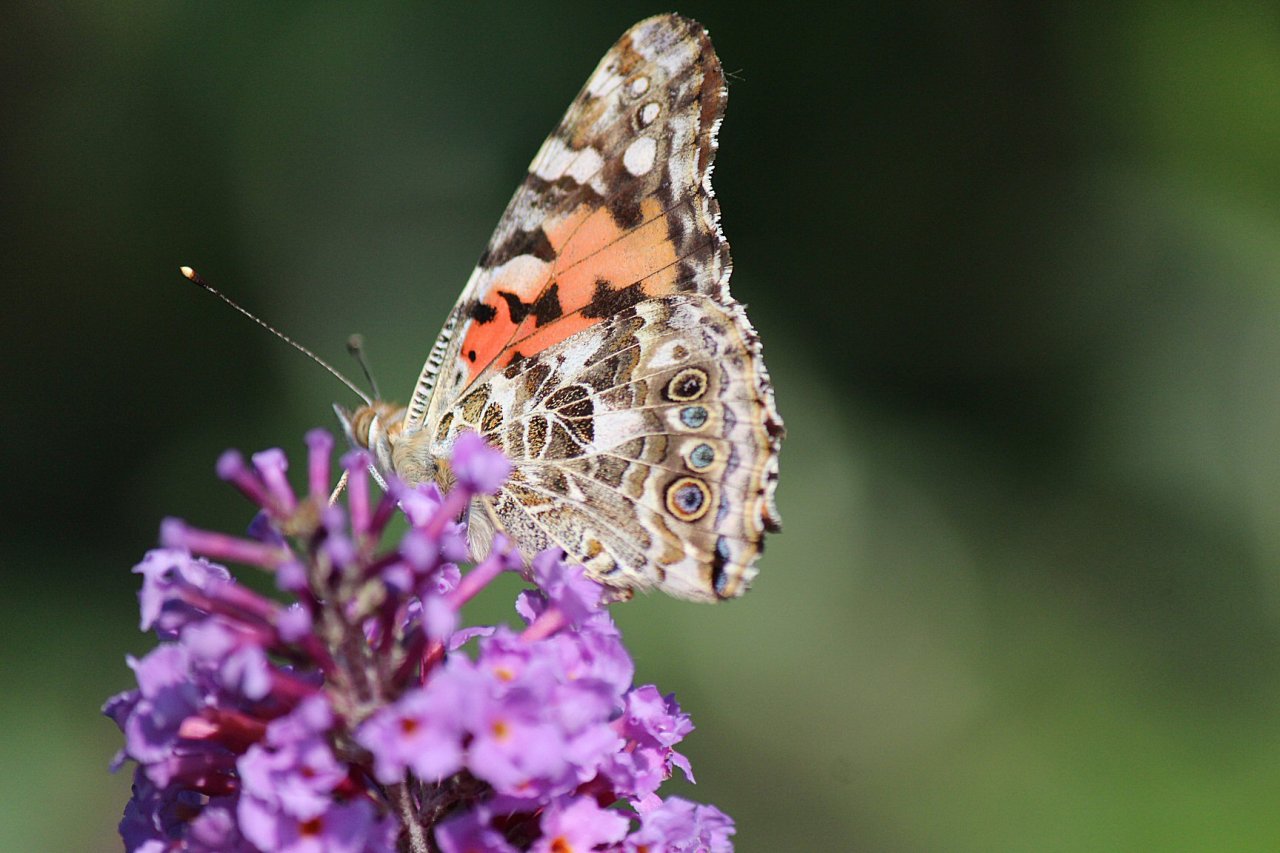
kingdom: Animalia
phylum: Arthropoda
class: Insecta
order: Lepidoptera
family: Nymphalidae
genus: Vanessa
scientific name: Vanessa cardui
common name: Painted Lady
